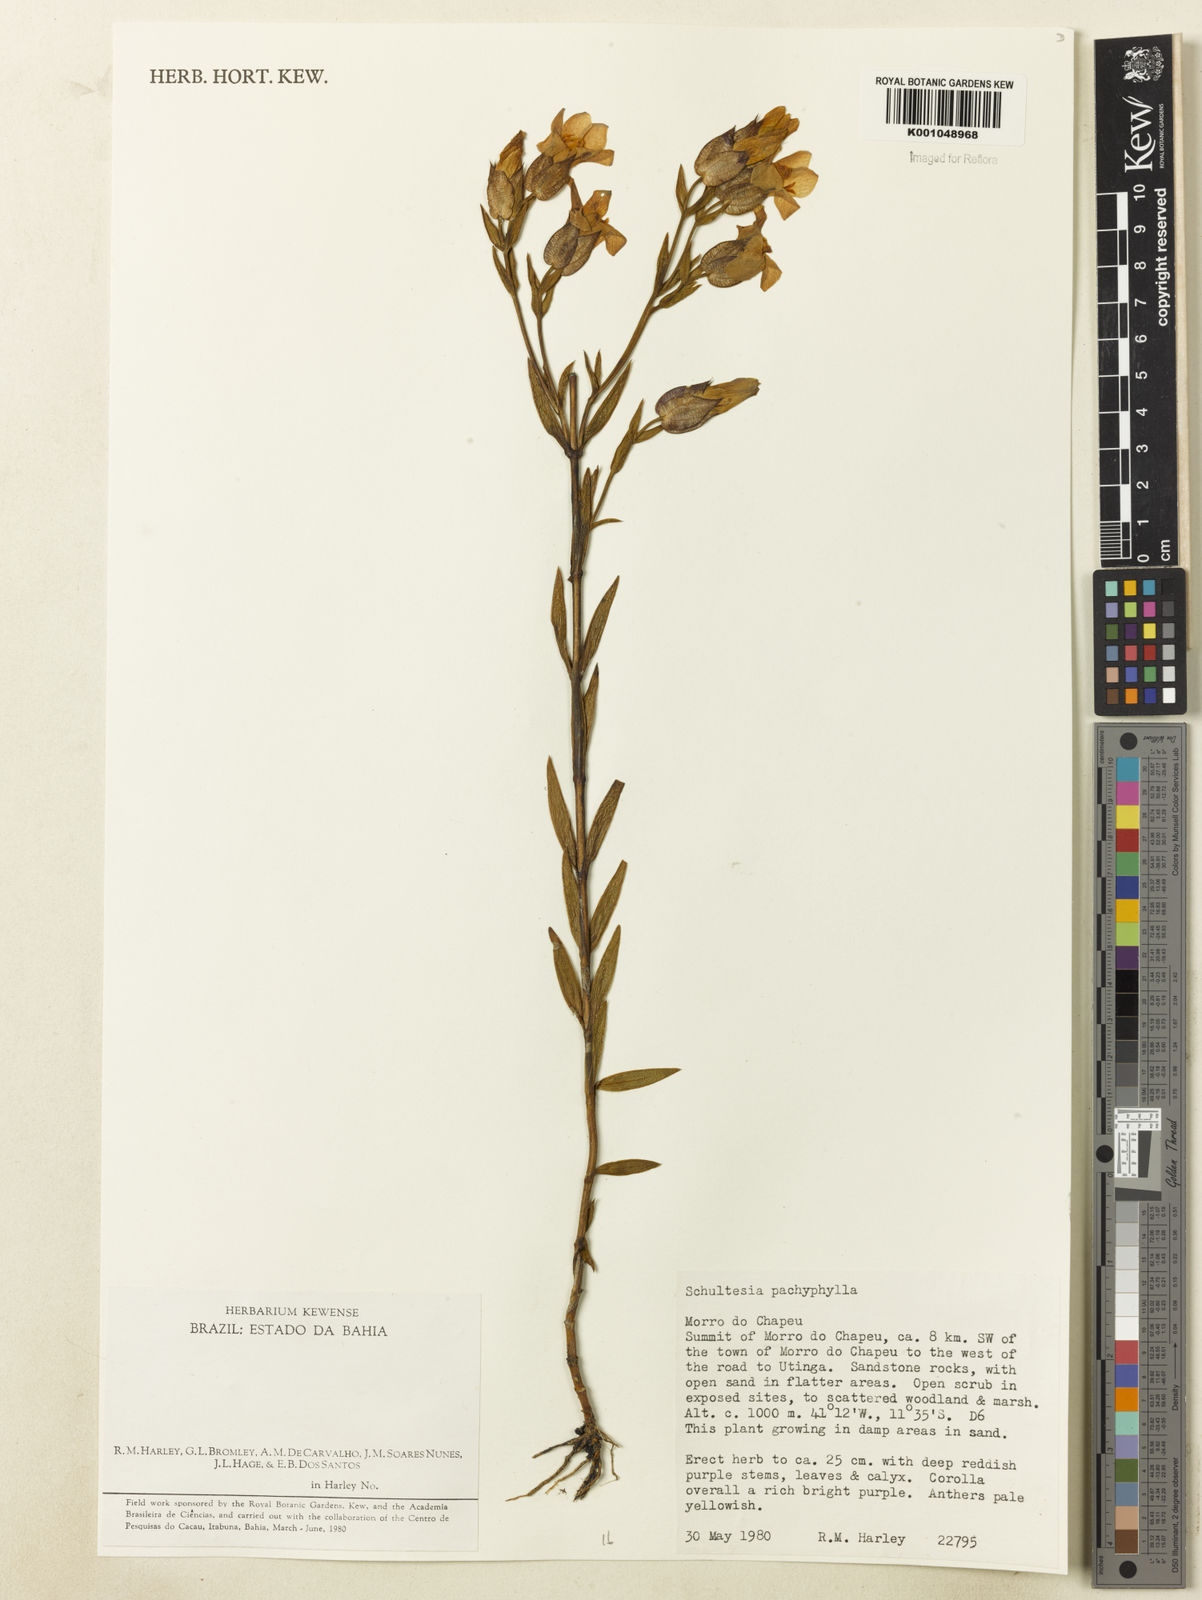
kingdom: Plantae
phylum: Tracheophyta
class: Magnoliopsida
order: Gentianales
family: Gentianaceae
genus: Schultesia
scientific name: Schultesia pachyphylla
